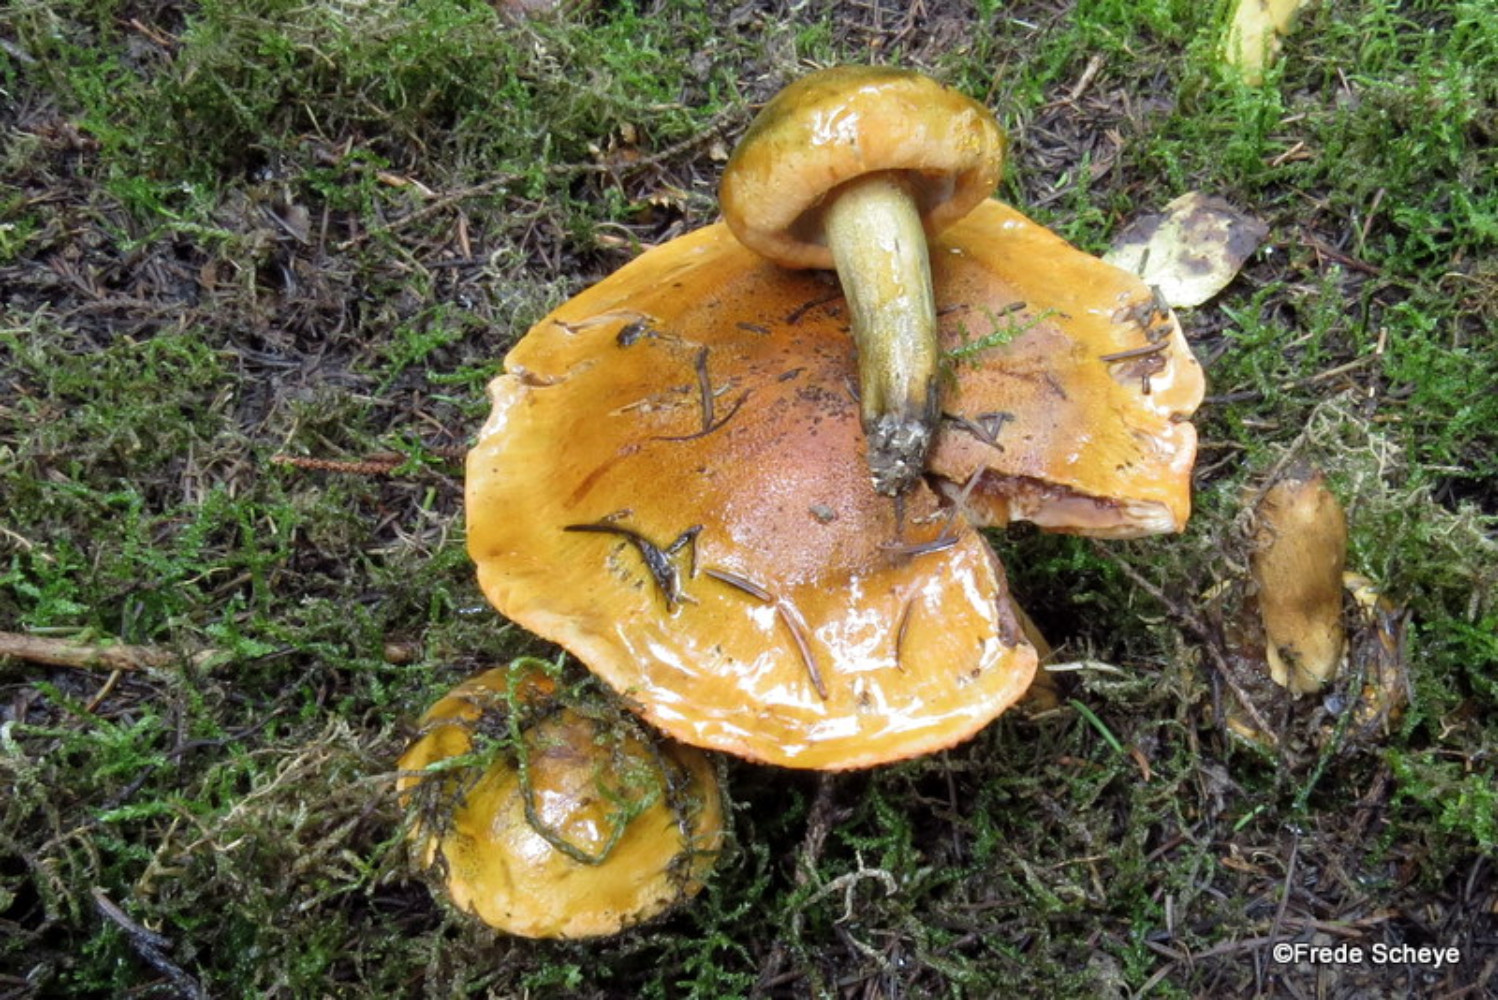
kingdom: Fungi
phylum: Basidiomycota
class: Agaricomycetes
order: Agaricales
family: Tricholomataceae
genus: Tricholoma
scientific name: Tricholoma aurantium
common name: orangegul ridderhat
